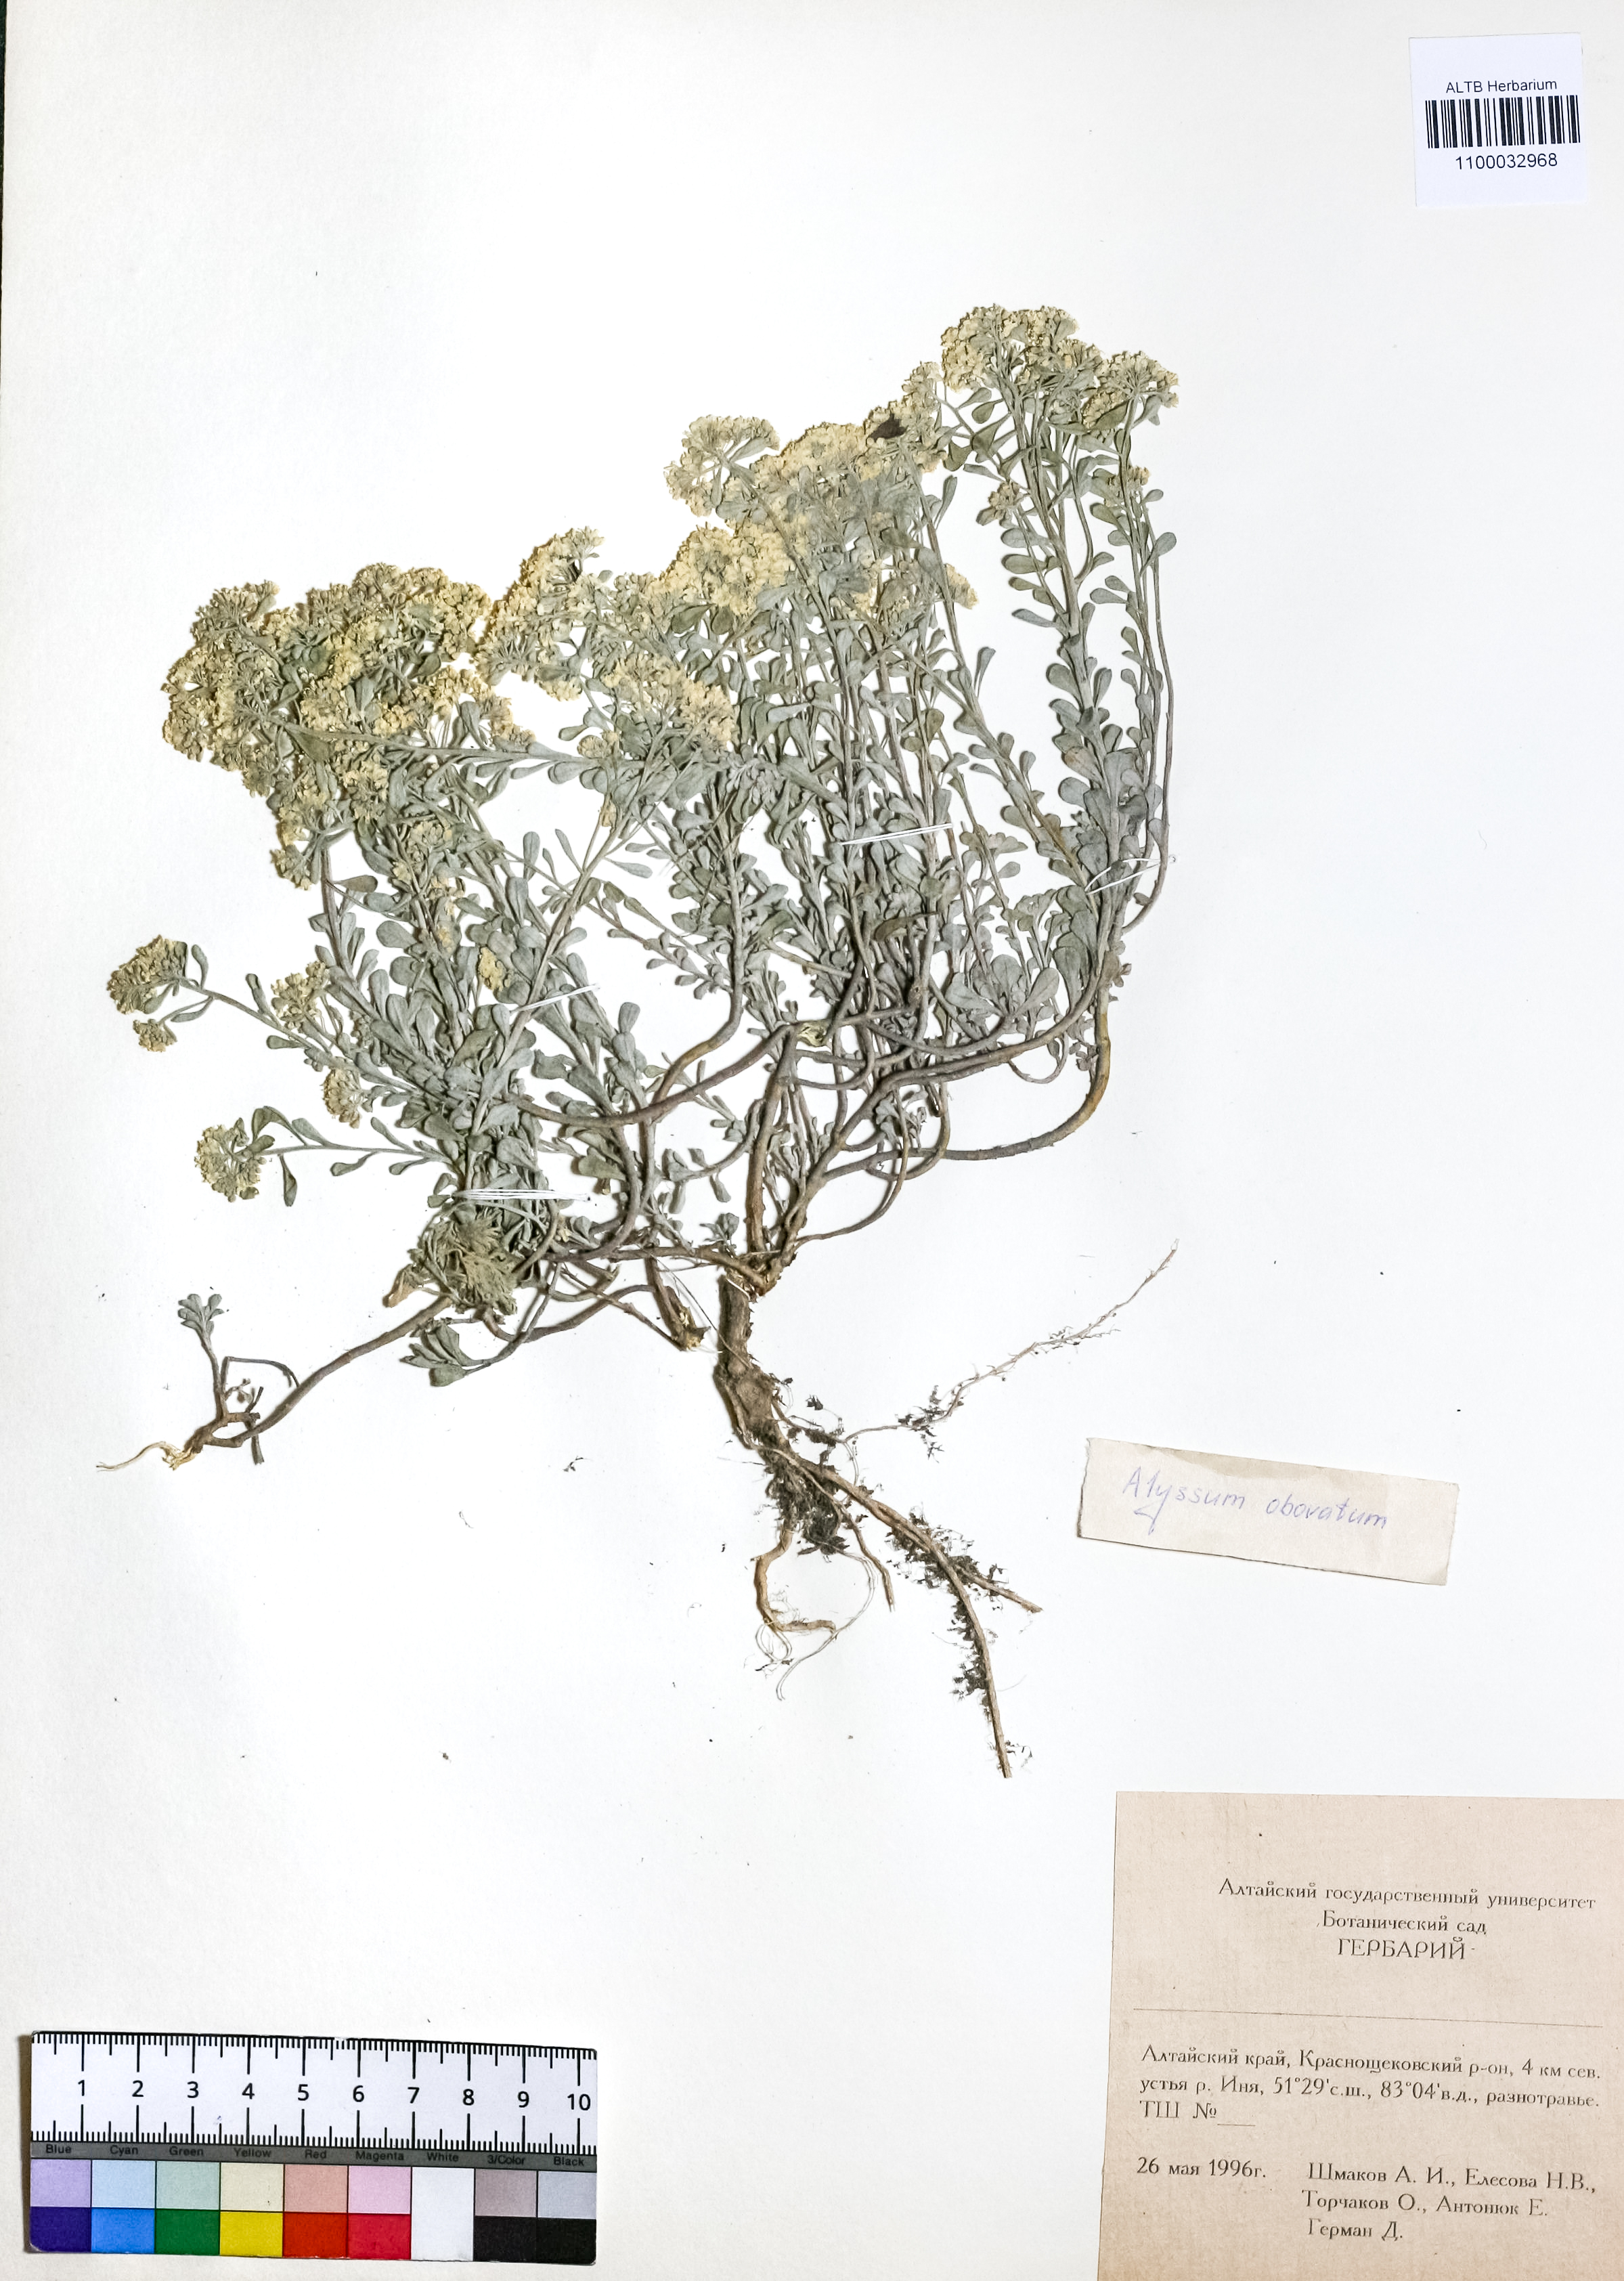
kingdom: Plantae
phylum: Tracheophyta
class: Magnoliopsida
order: Brassicales
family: Brassicaceae
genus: Odontarrhena
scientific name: Odontarrhena obovata
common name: American alyssum
